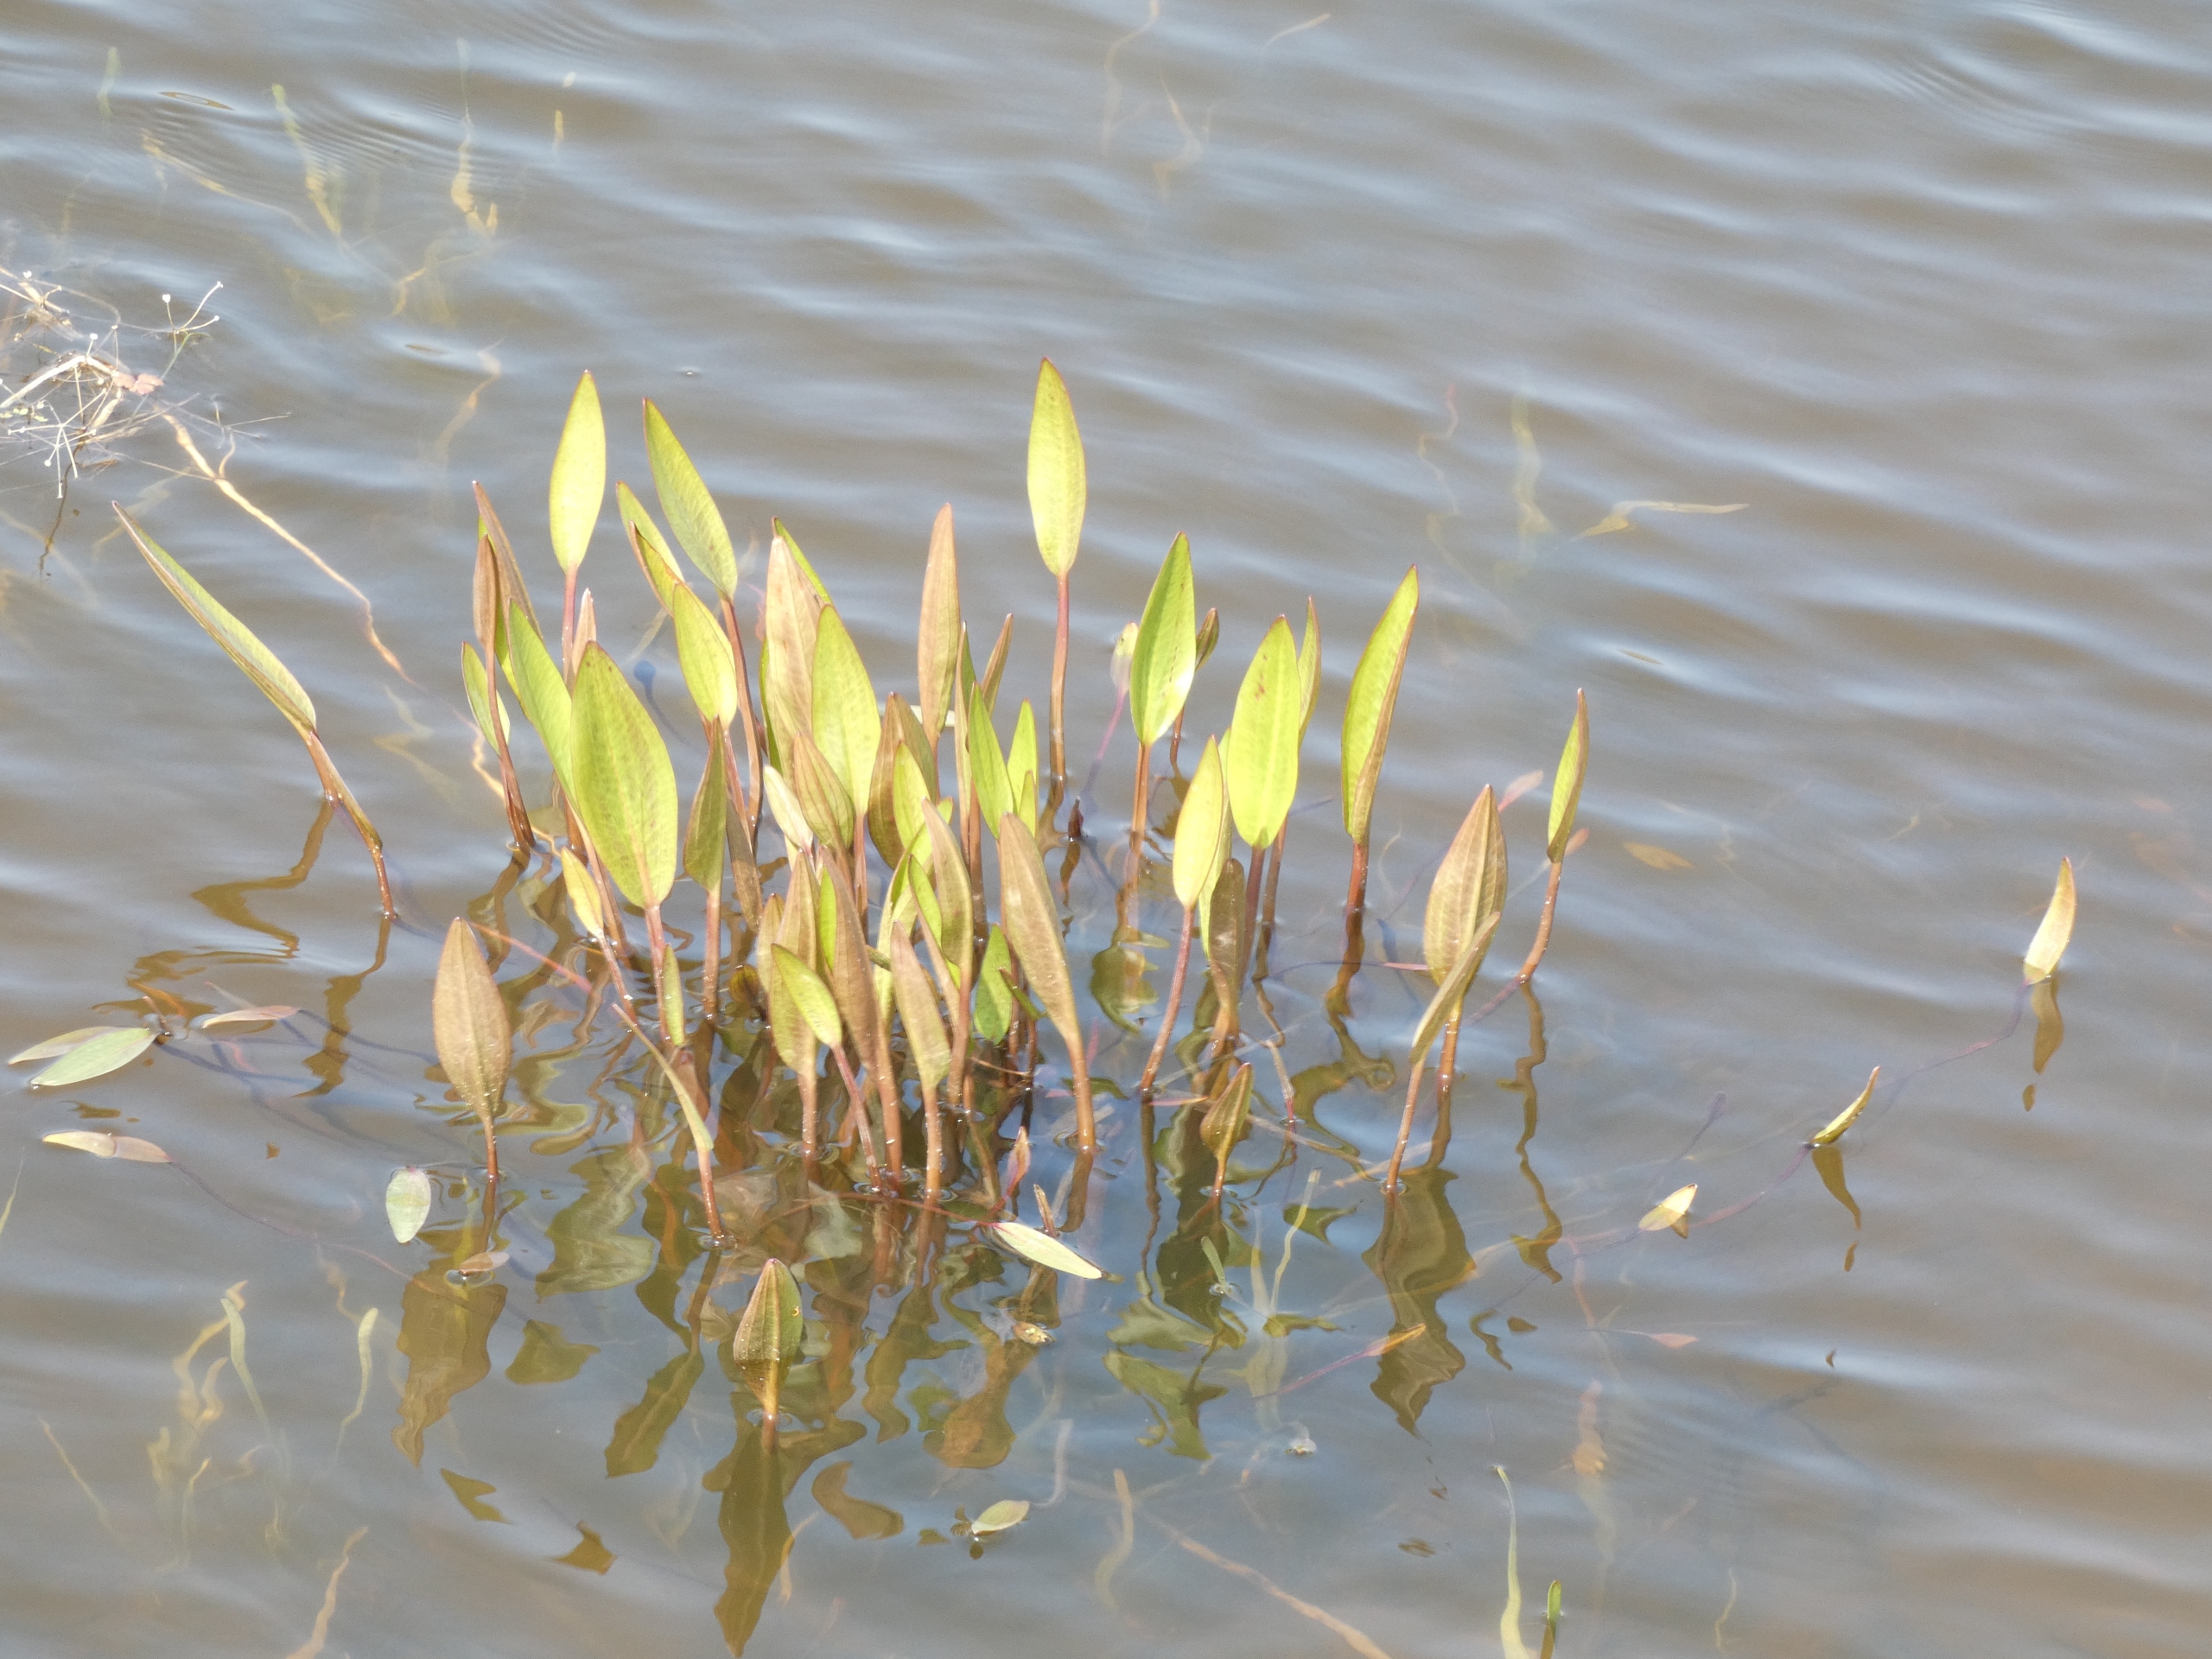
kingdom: Plantae
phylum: Tracheophyta
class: Liliopsida
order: Alismatales
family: Alismataceae
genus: Alisma
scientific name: Alisma plantago-aquatica
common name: Vejbred-skeblad
